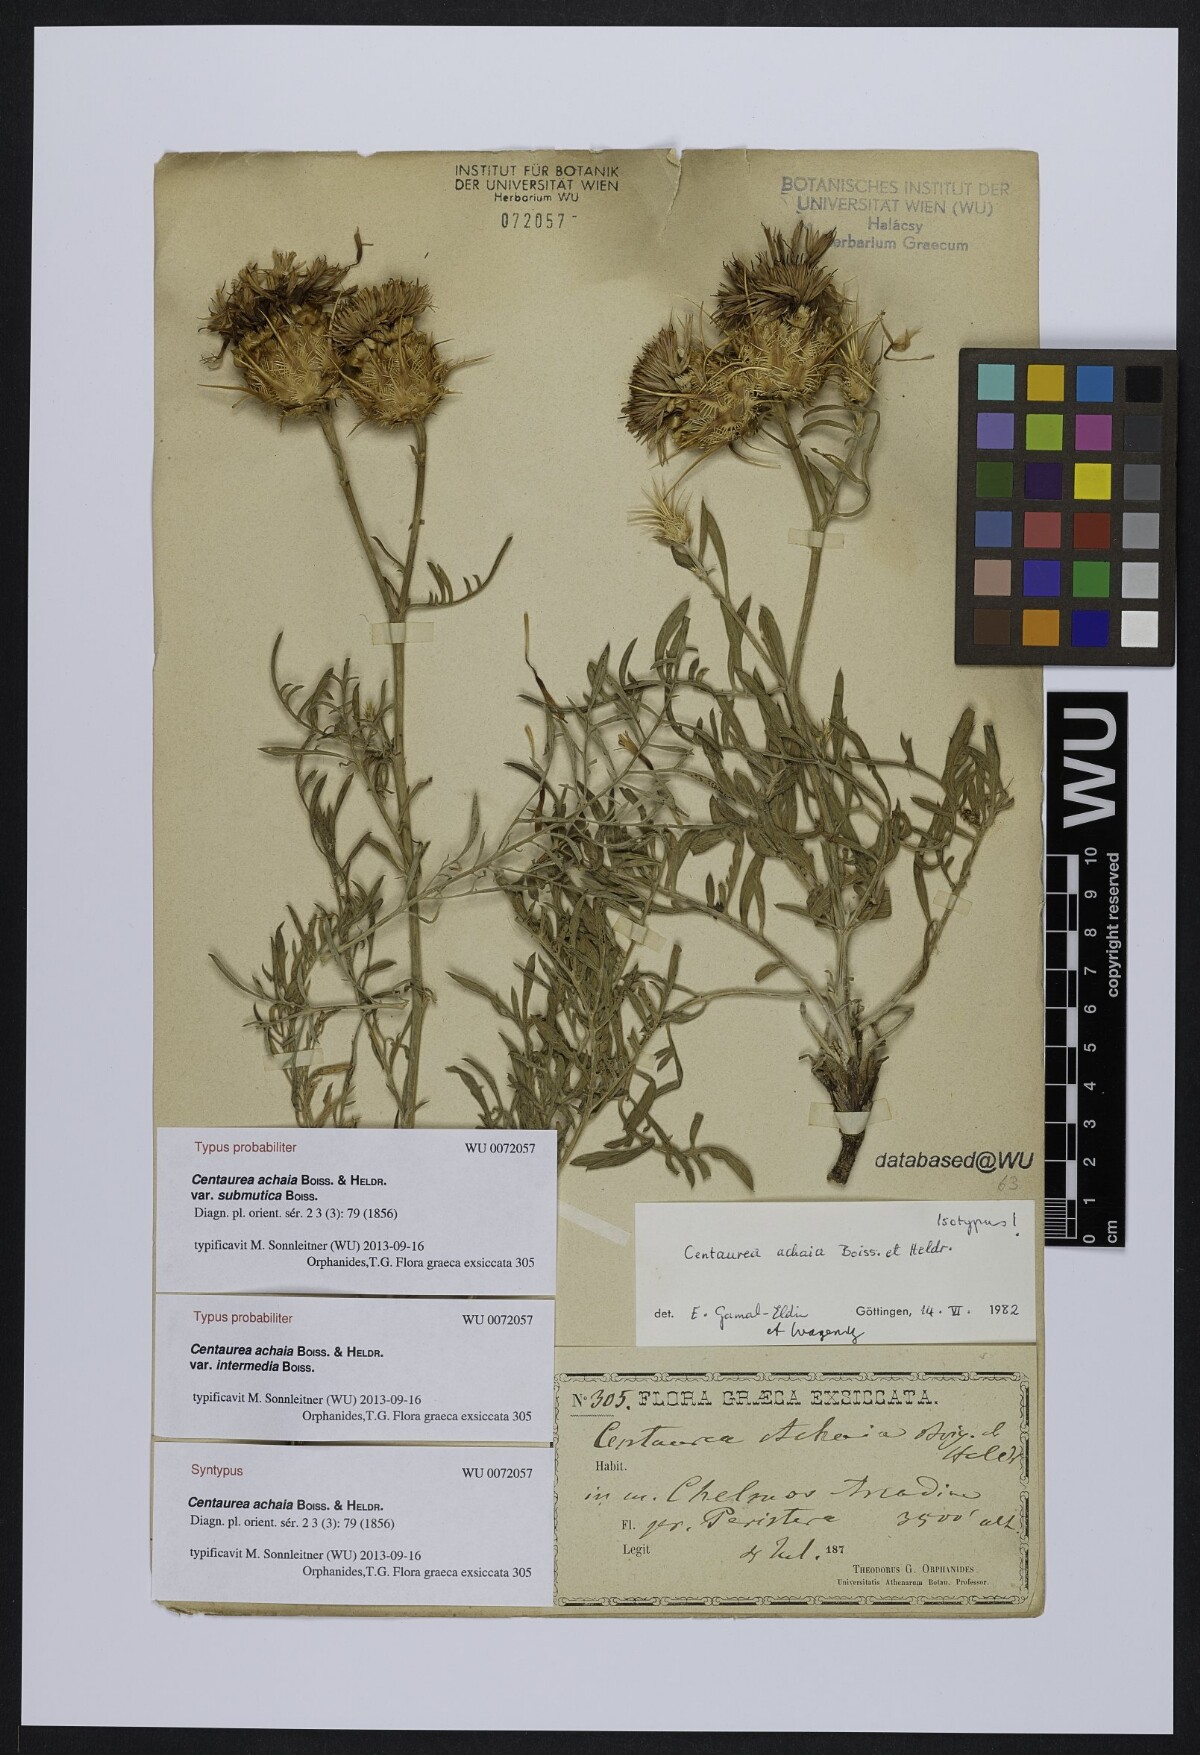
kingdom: Plantae
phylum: Tracheophyta
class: Magnoliopsida
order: Asterales
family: Asteraceae
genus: Centaurea
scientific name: Centaurea achaia
